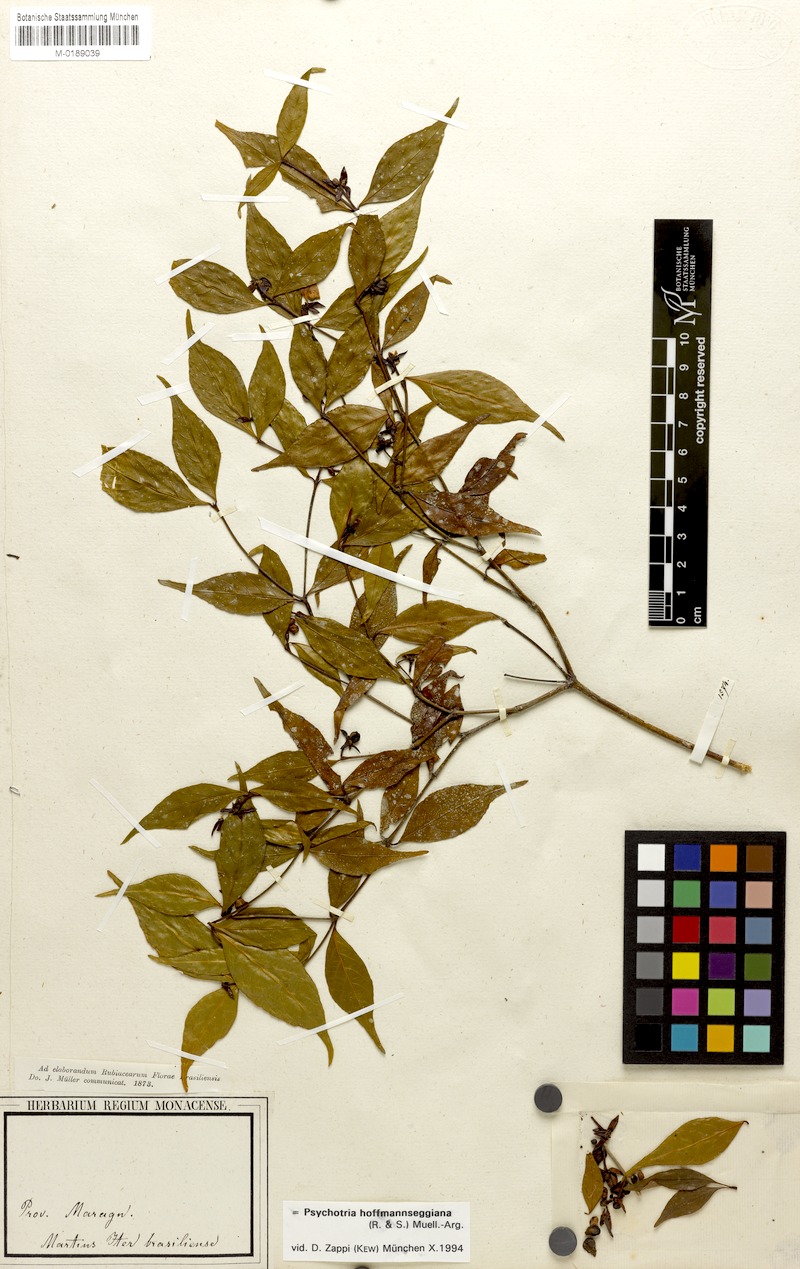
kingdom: Plantae
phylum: Tracheophyta
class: Magnoliopsida
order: Gentianales
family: Rubiaceae
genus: Palicourea
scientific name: Palicourea hoffmannseggiana
